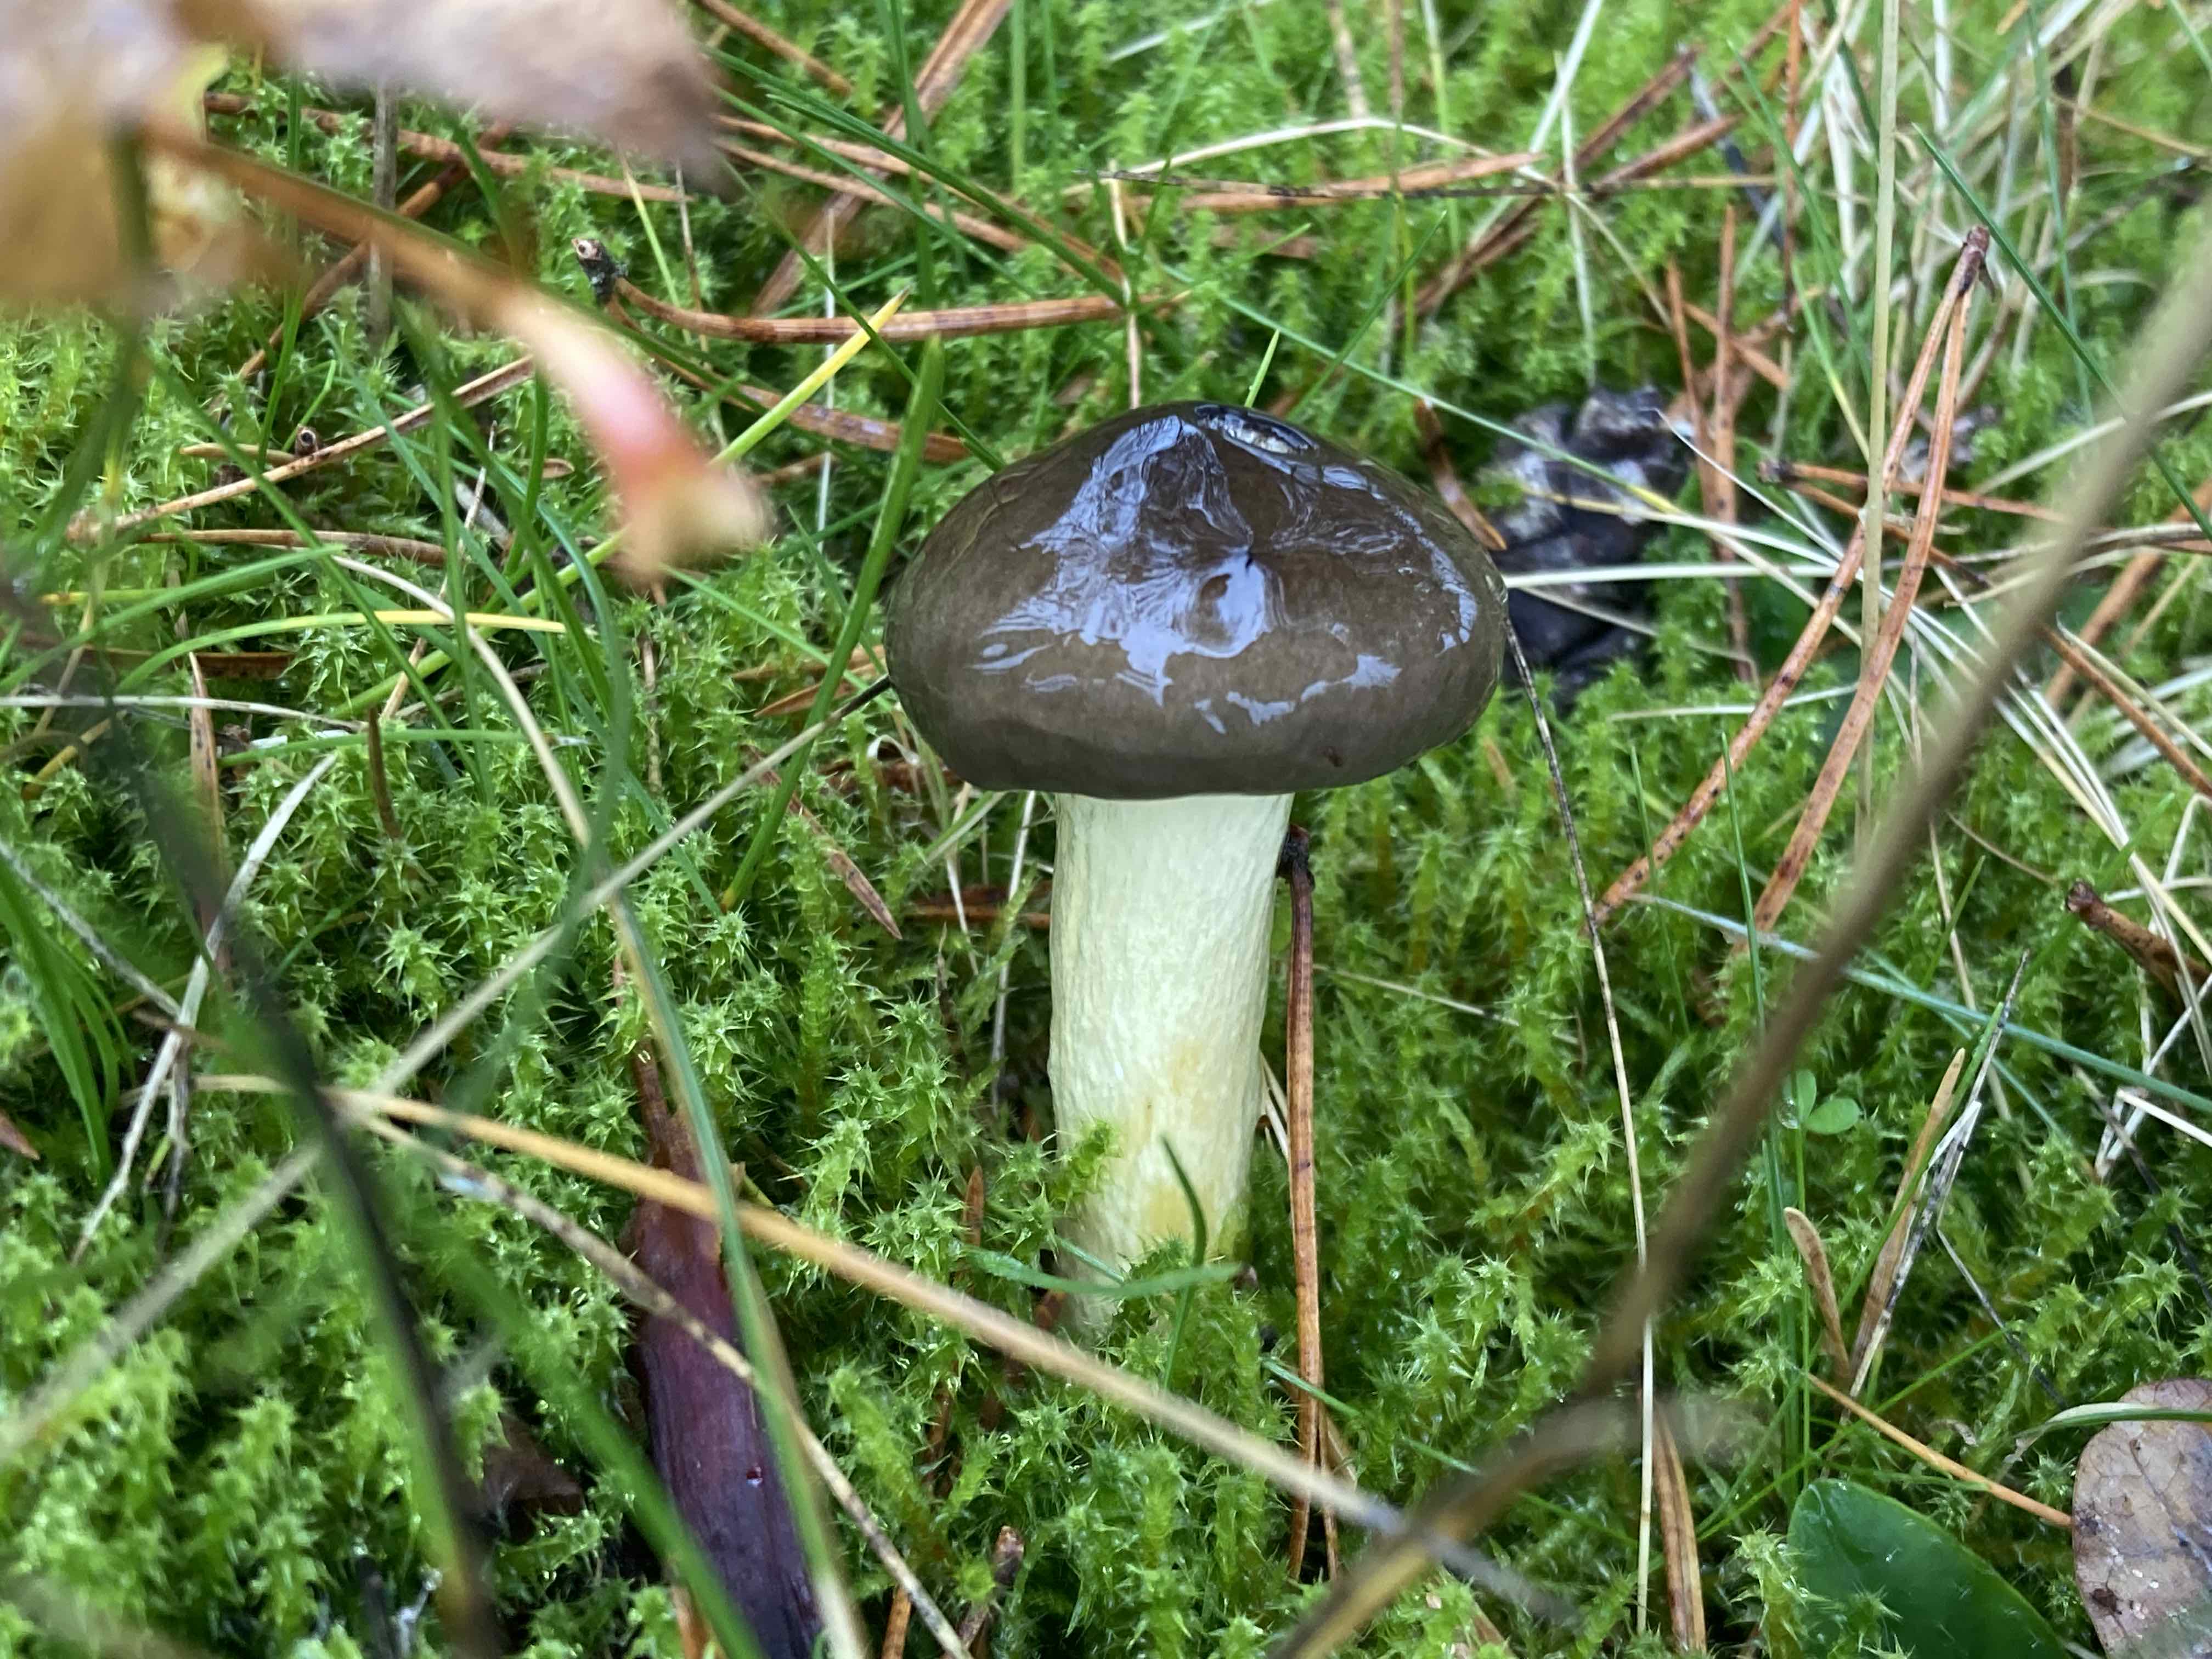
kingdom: Fungi
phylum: Basidiomycota
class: Agaricomycetes
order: Agaricales
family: Hygrophoraceae
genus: Hygrophorus
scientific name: Hygrophorus hypothejus
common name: frost-sneglehat
